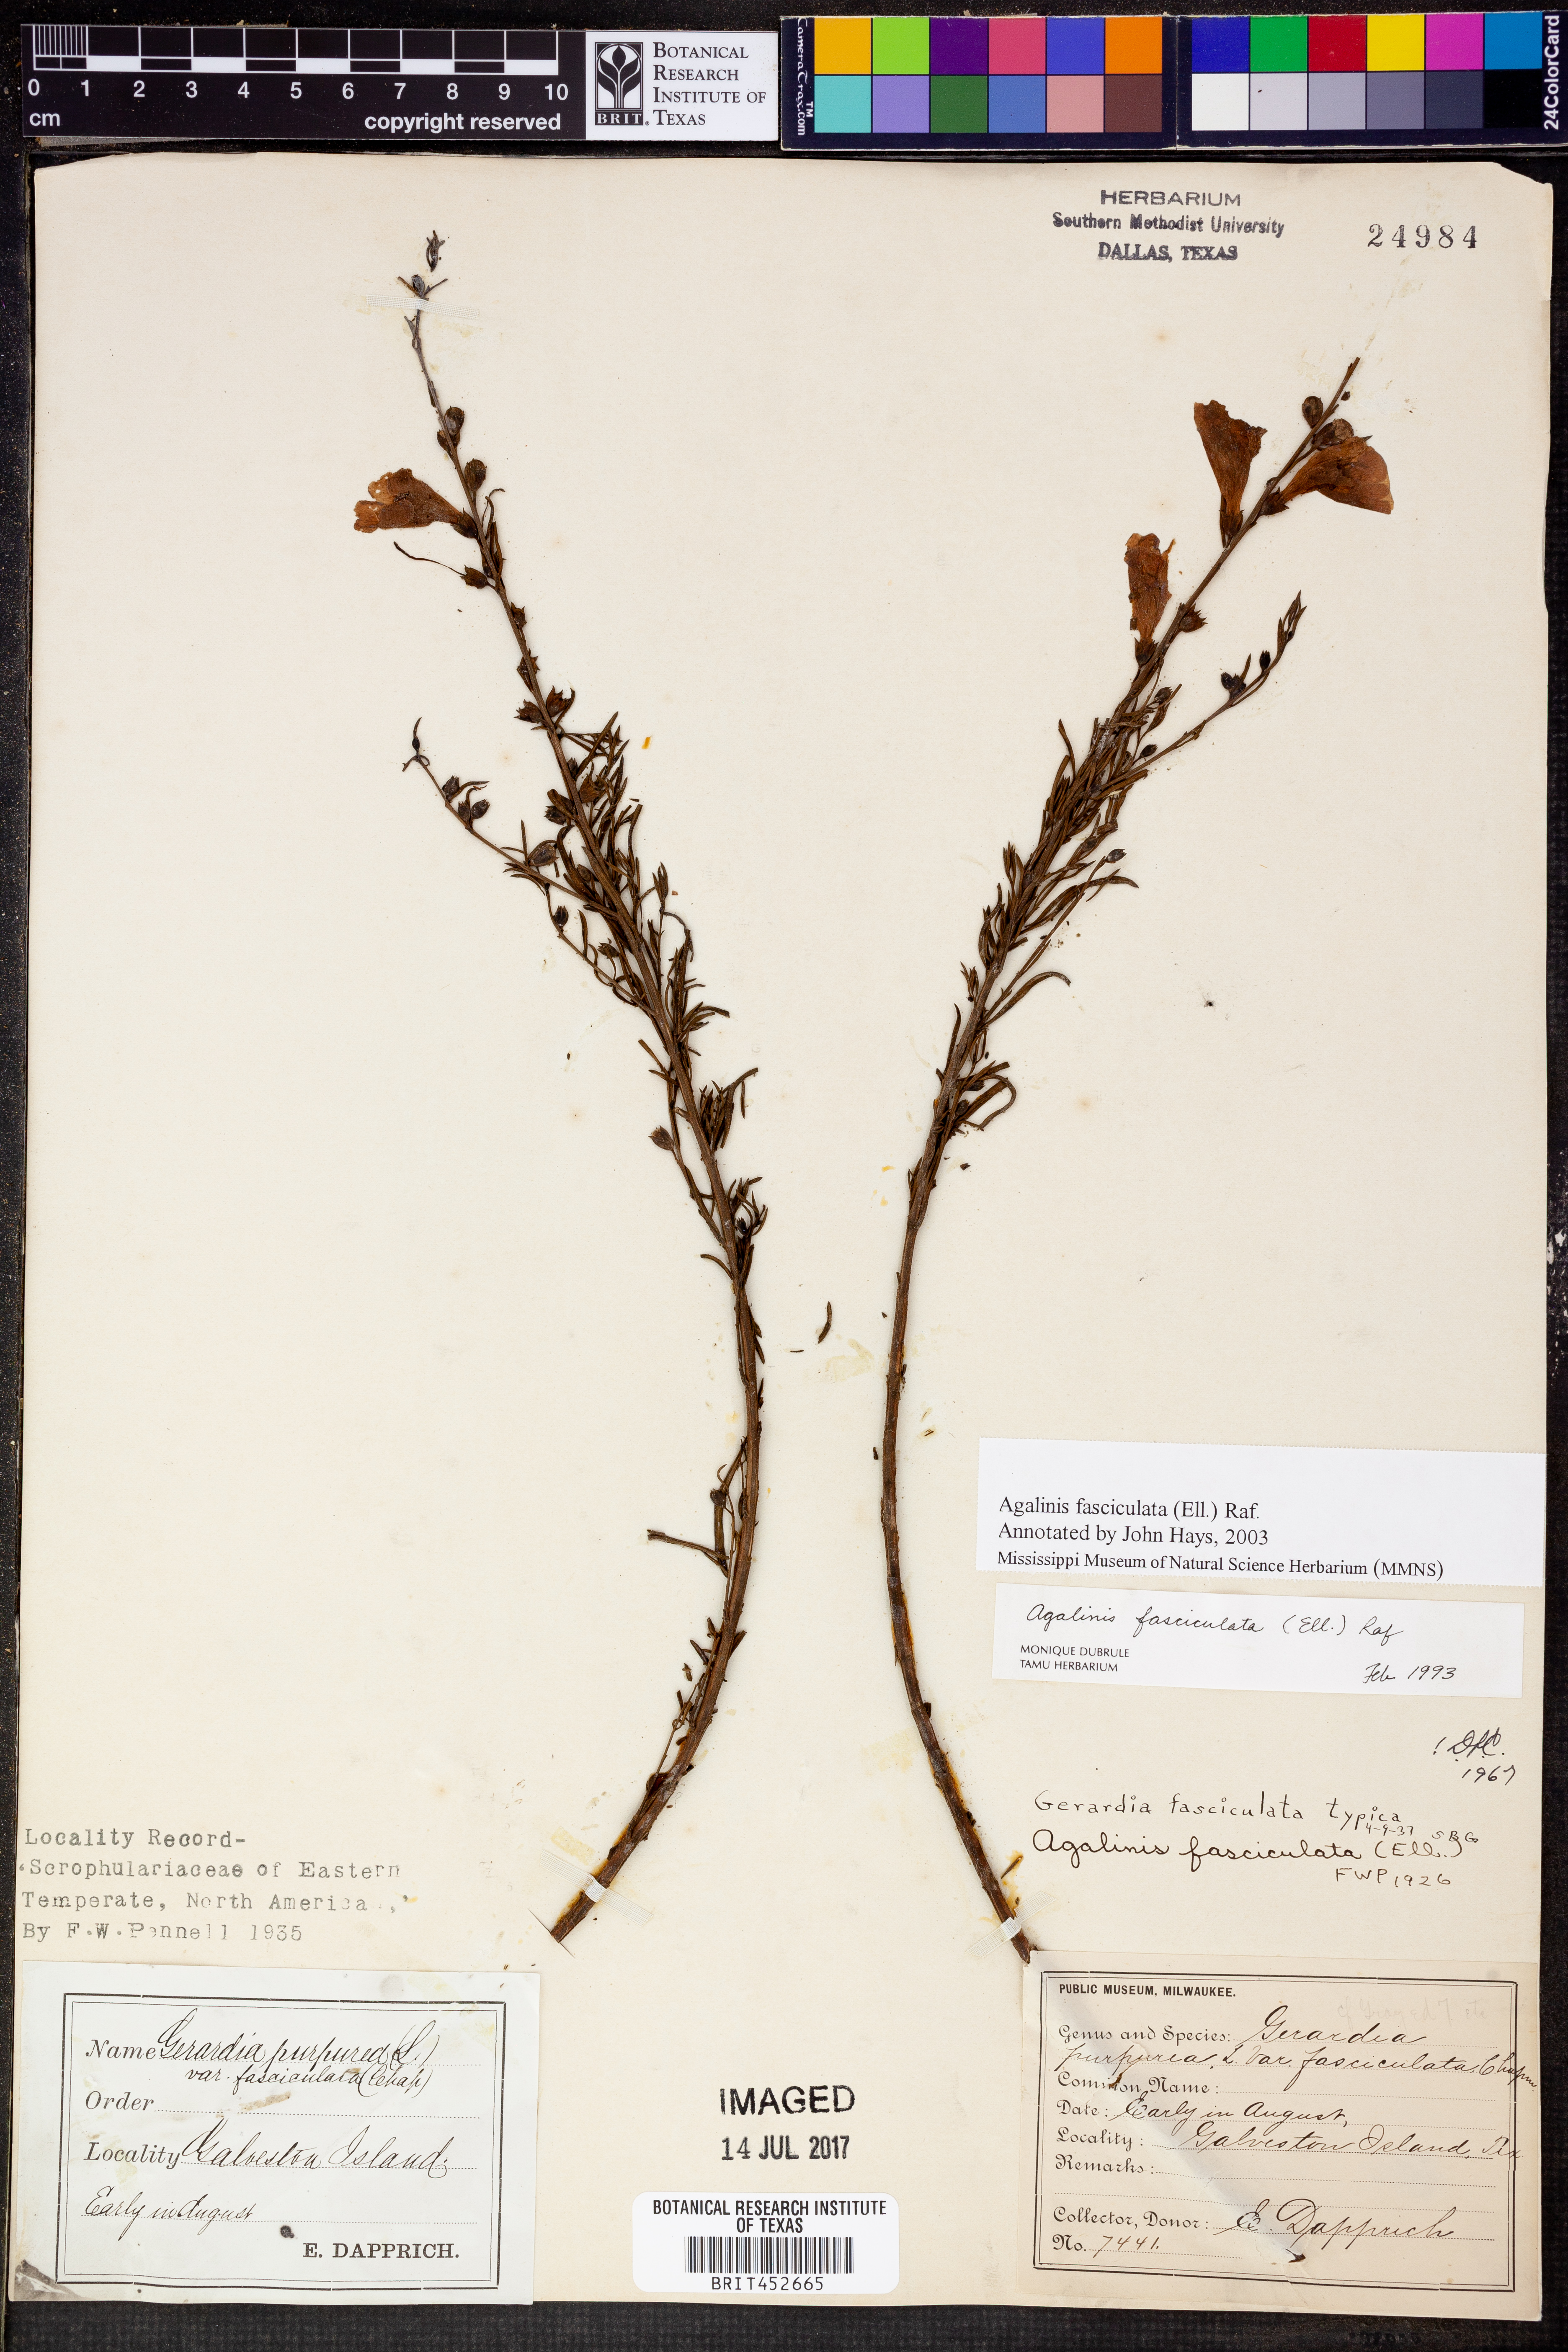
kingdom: Plantae
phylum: Tracheophyta
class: Magnoliopsida
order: Lamiales
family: Orobanchaceae
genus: Agalinis
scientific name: Agalinis fasciculata
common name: Beach false foxglove
